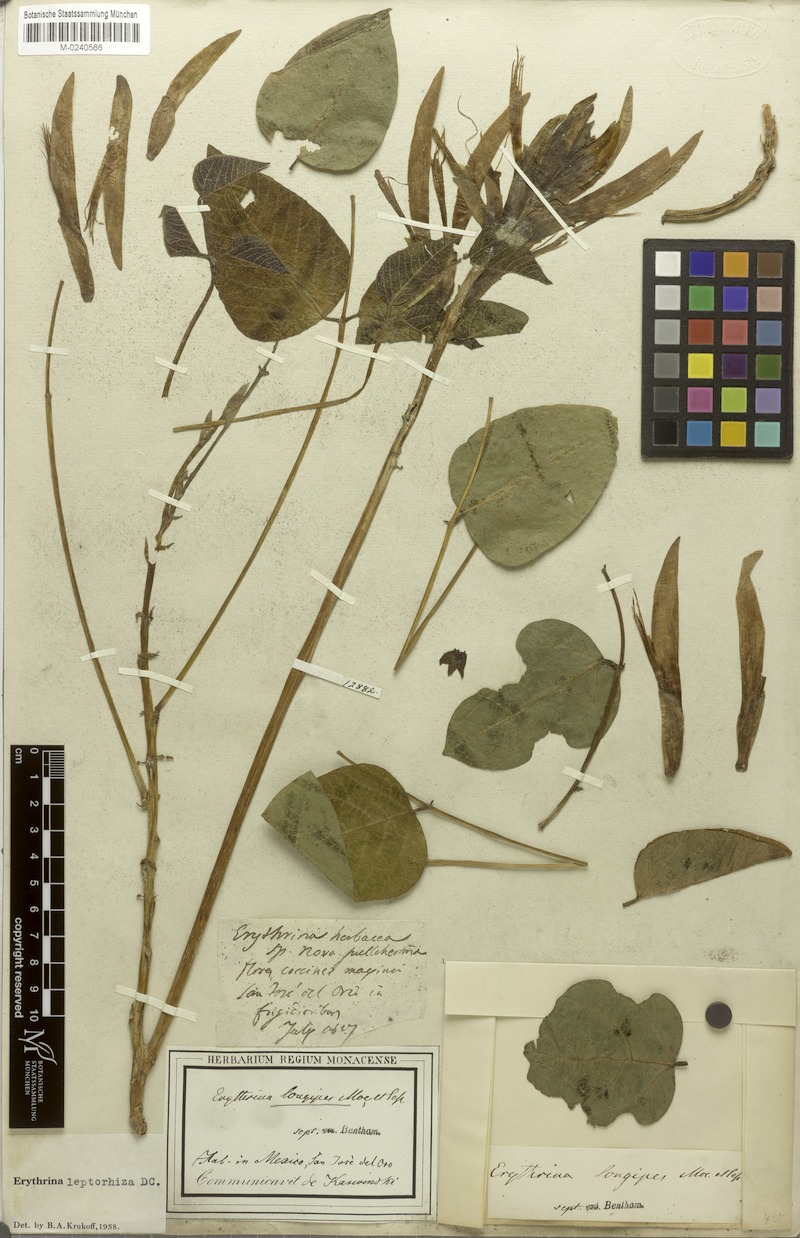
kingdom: Plantae
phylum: Tracheophyta
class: Magnoliopsida
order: Fabales
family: Fabaceae
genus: Erythrina
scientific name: Erythrina leptorhiza
